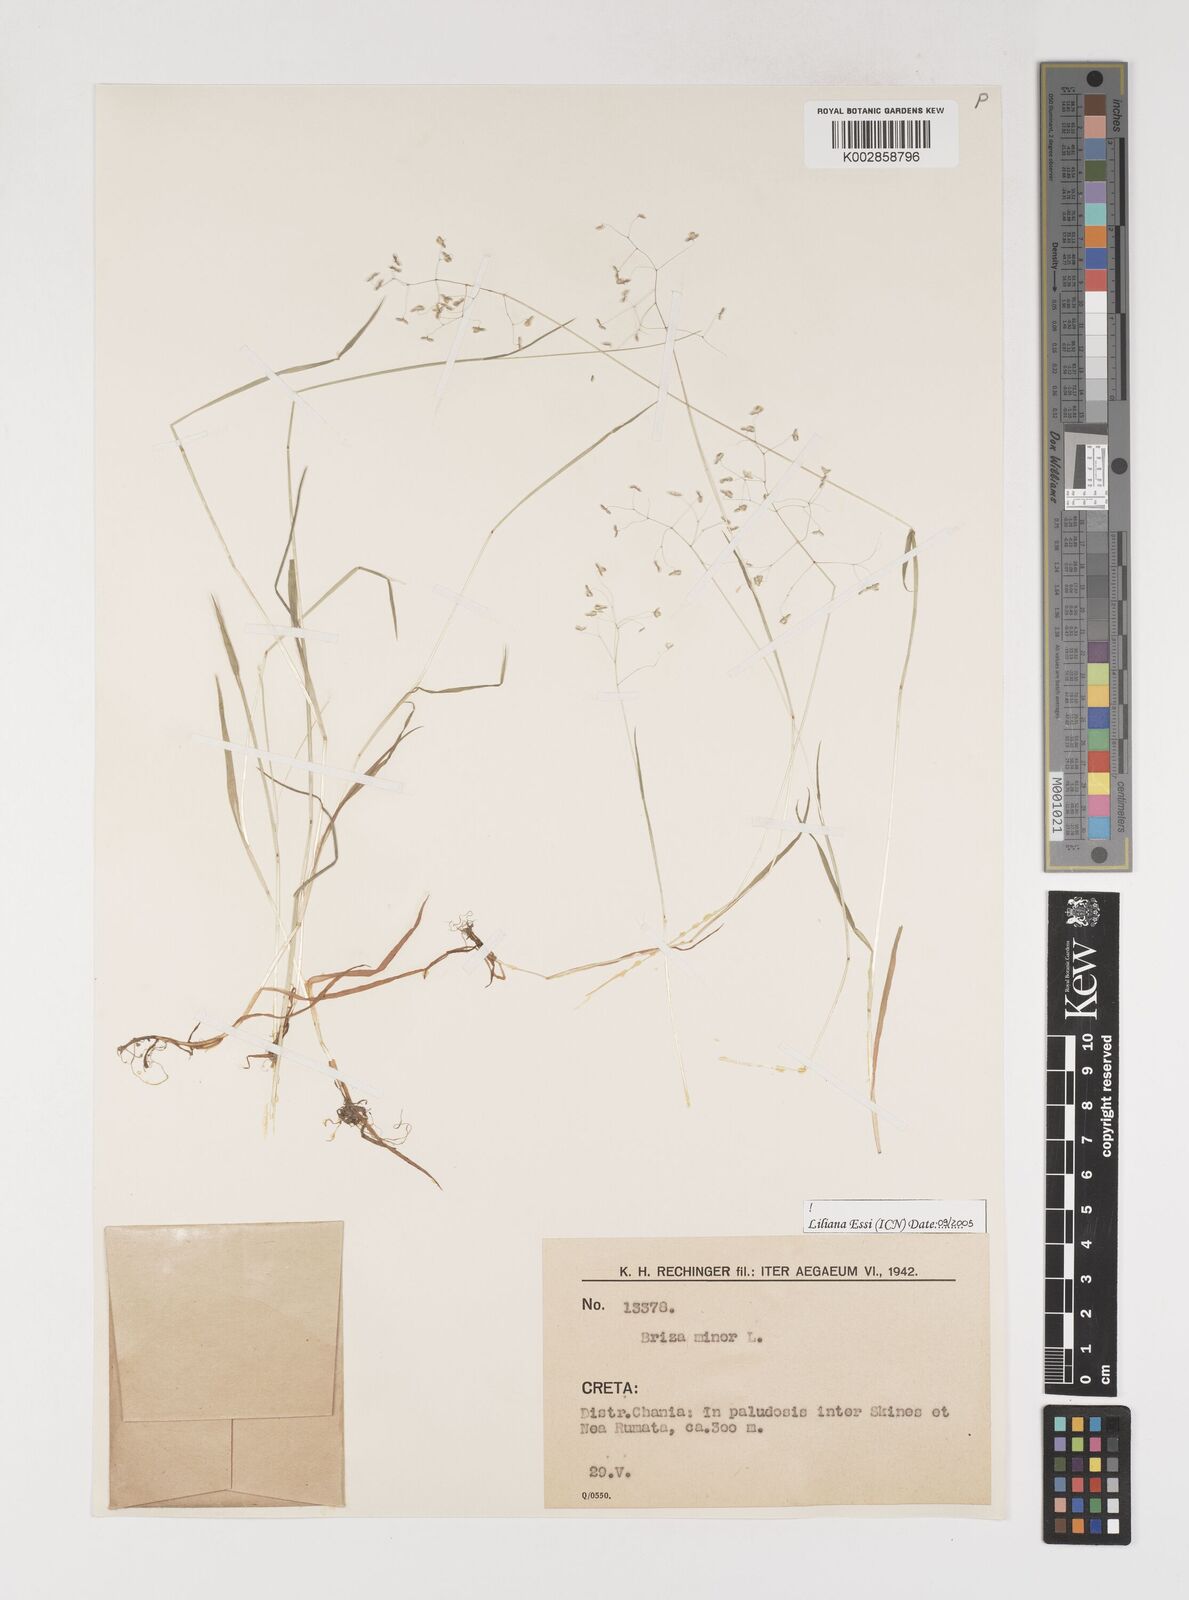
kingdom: Plantae
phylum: Tracheophyta
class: Liliopsida
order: Poales
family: Poaceae
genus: Briza
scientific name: Briza minor
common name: Lesser quaking-grass
